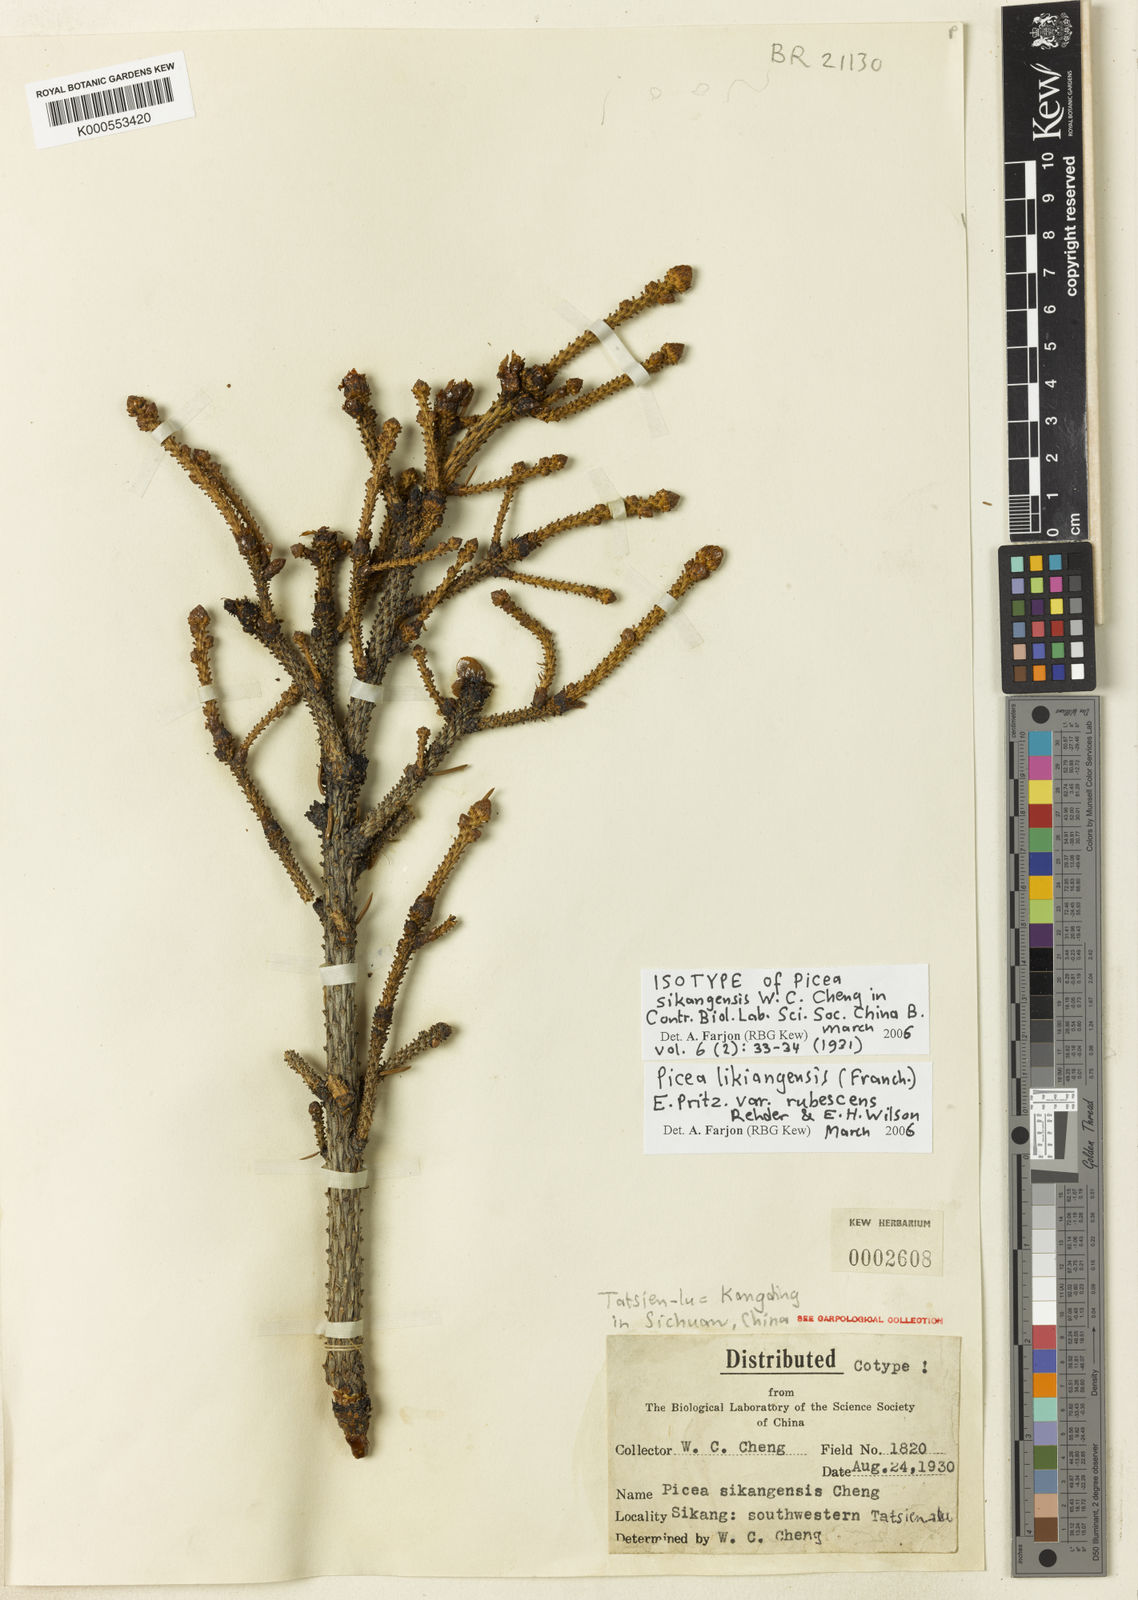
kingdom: Plantae
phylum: Tracheophyta
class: Pinopsida
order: Pinales
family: Pinaceae
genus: Picea
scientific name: Picea likiangensis
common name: Likiang spruce
